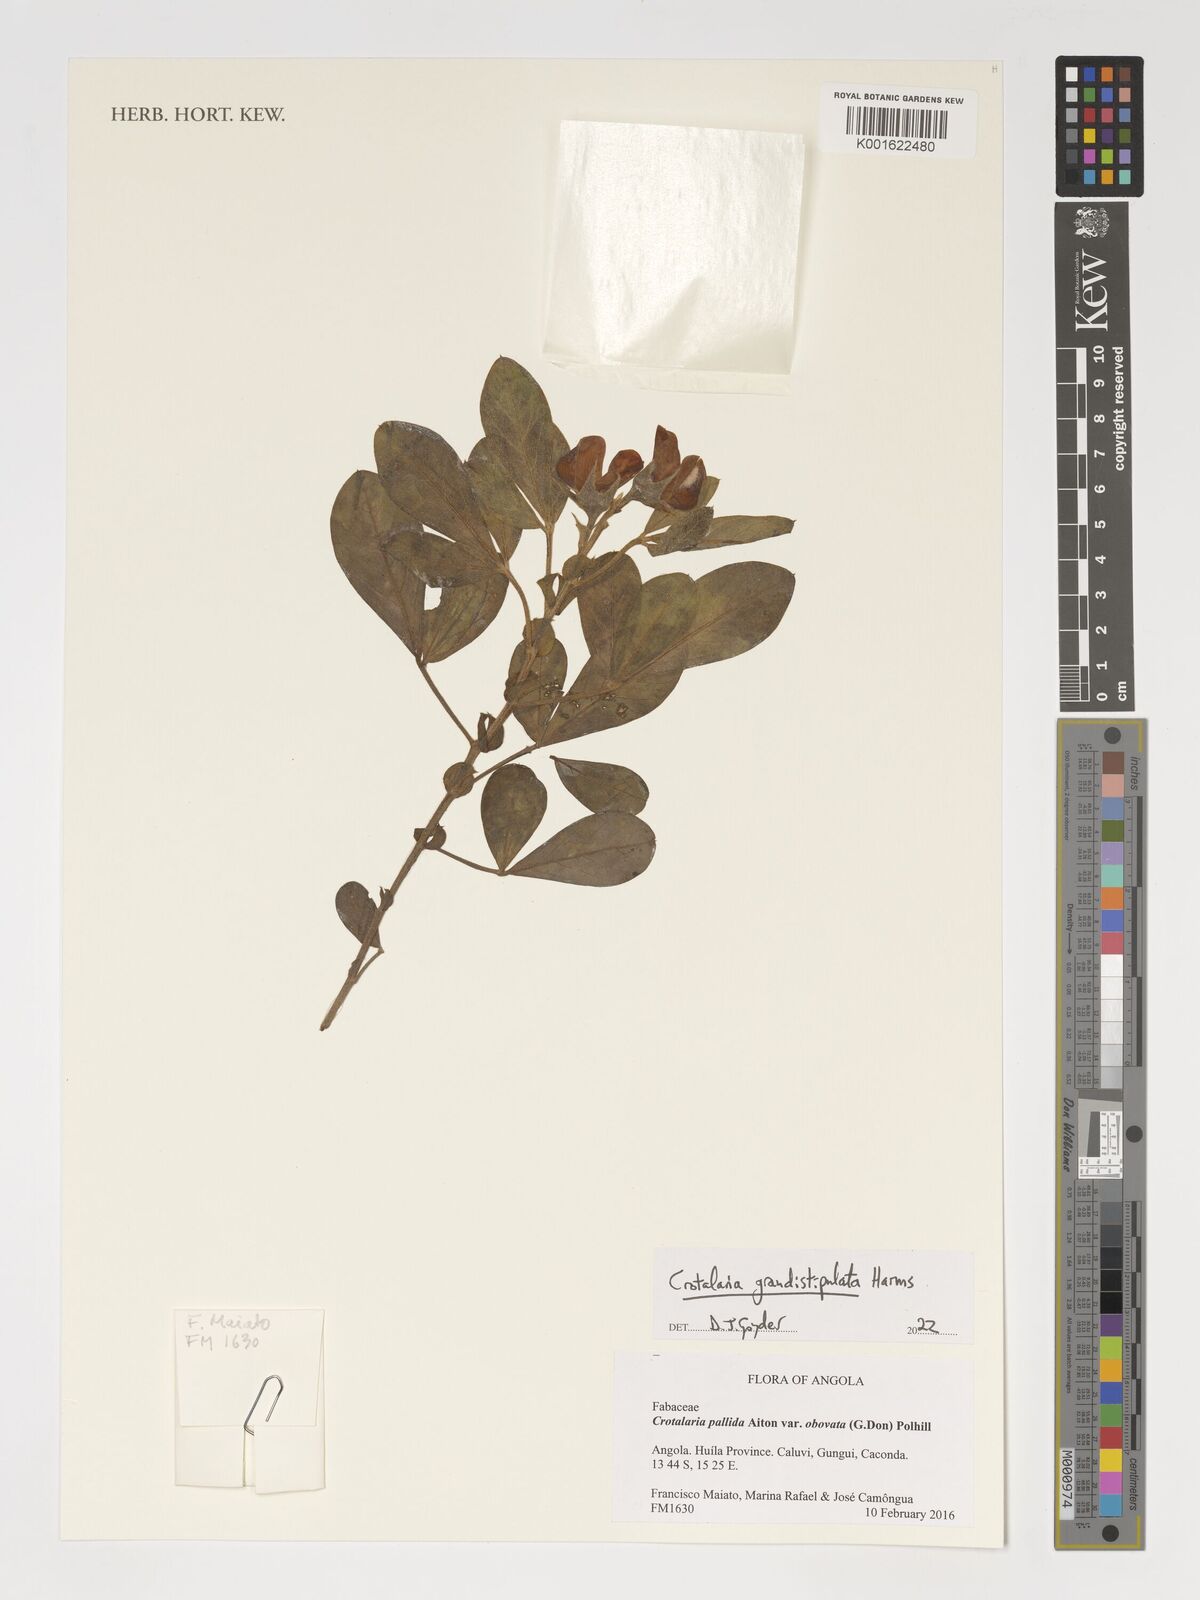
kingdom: Plantae
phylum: Tracheophyta
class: Magnoliopsida
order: Fabales
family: Fabaceae
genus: Crotalaria
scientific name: Crotalaria grandistipulata
